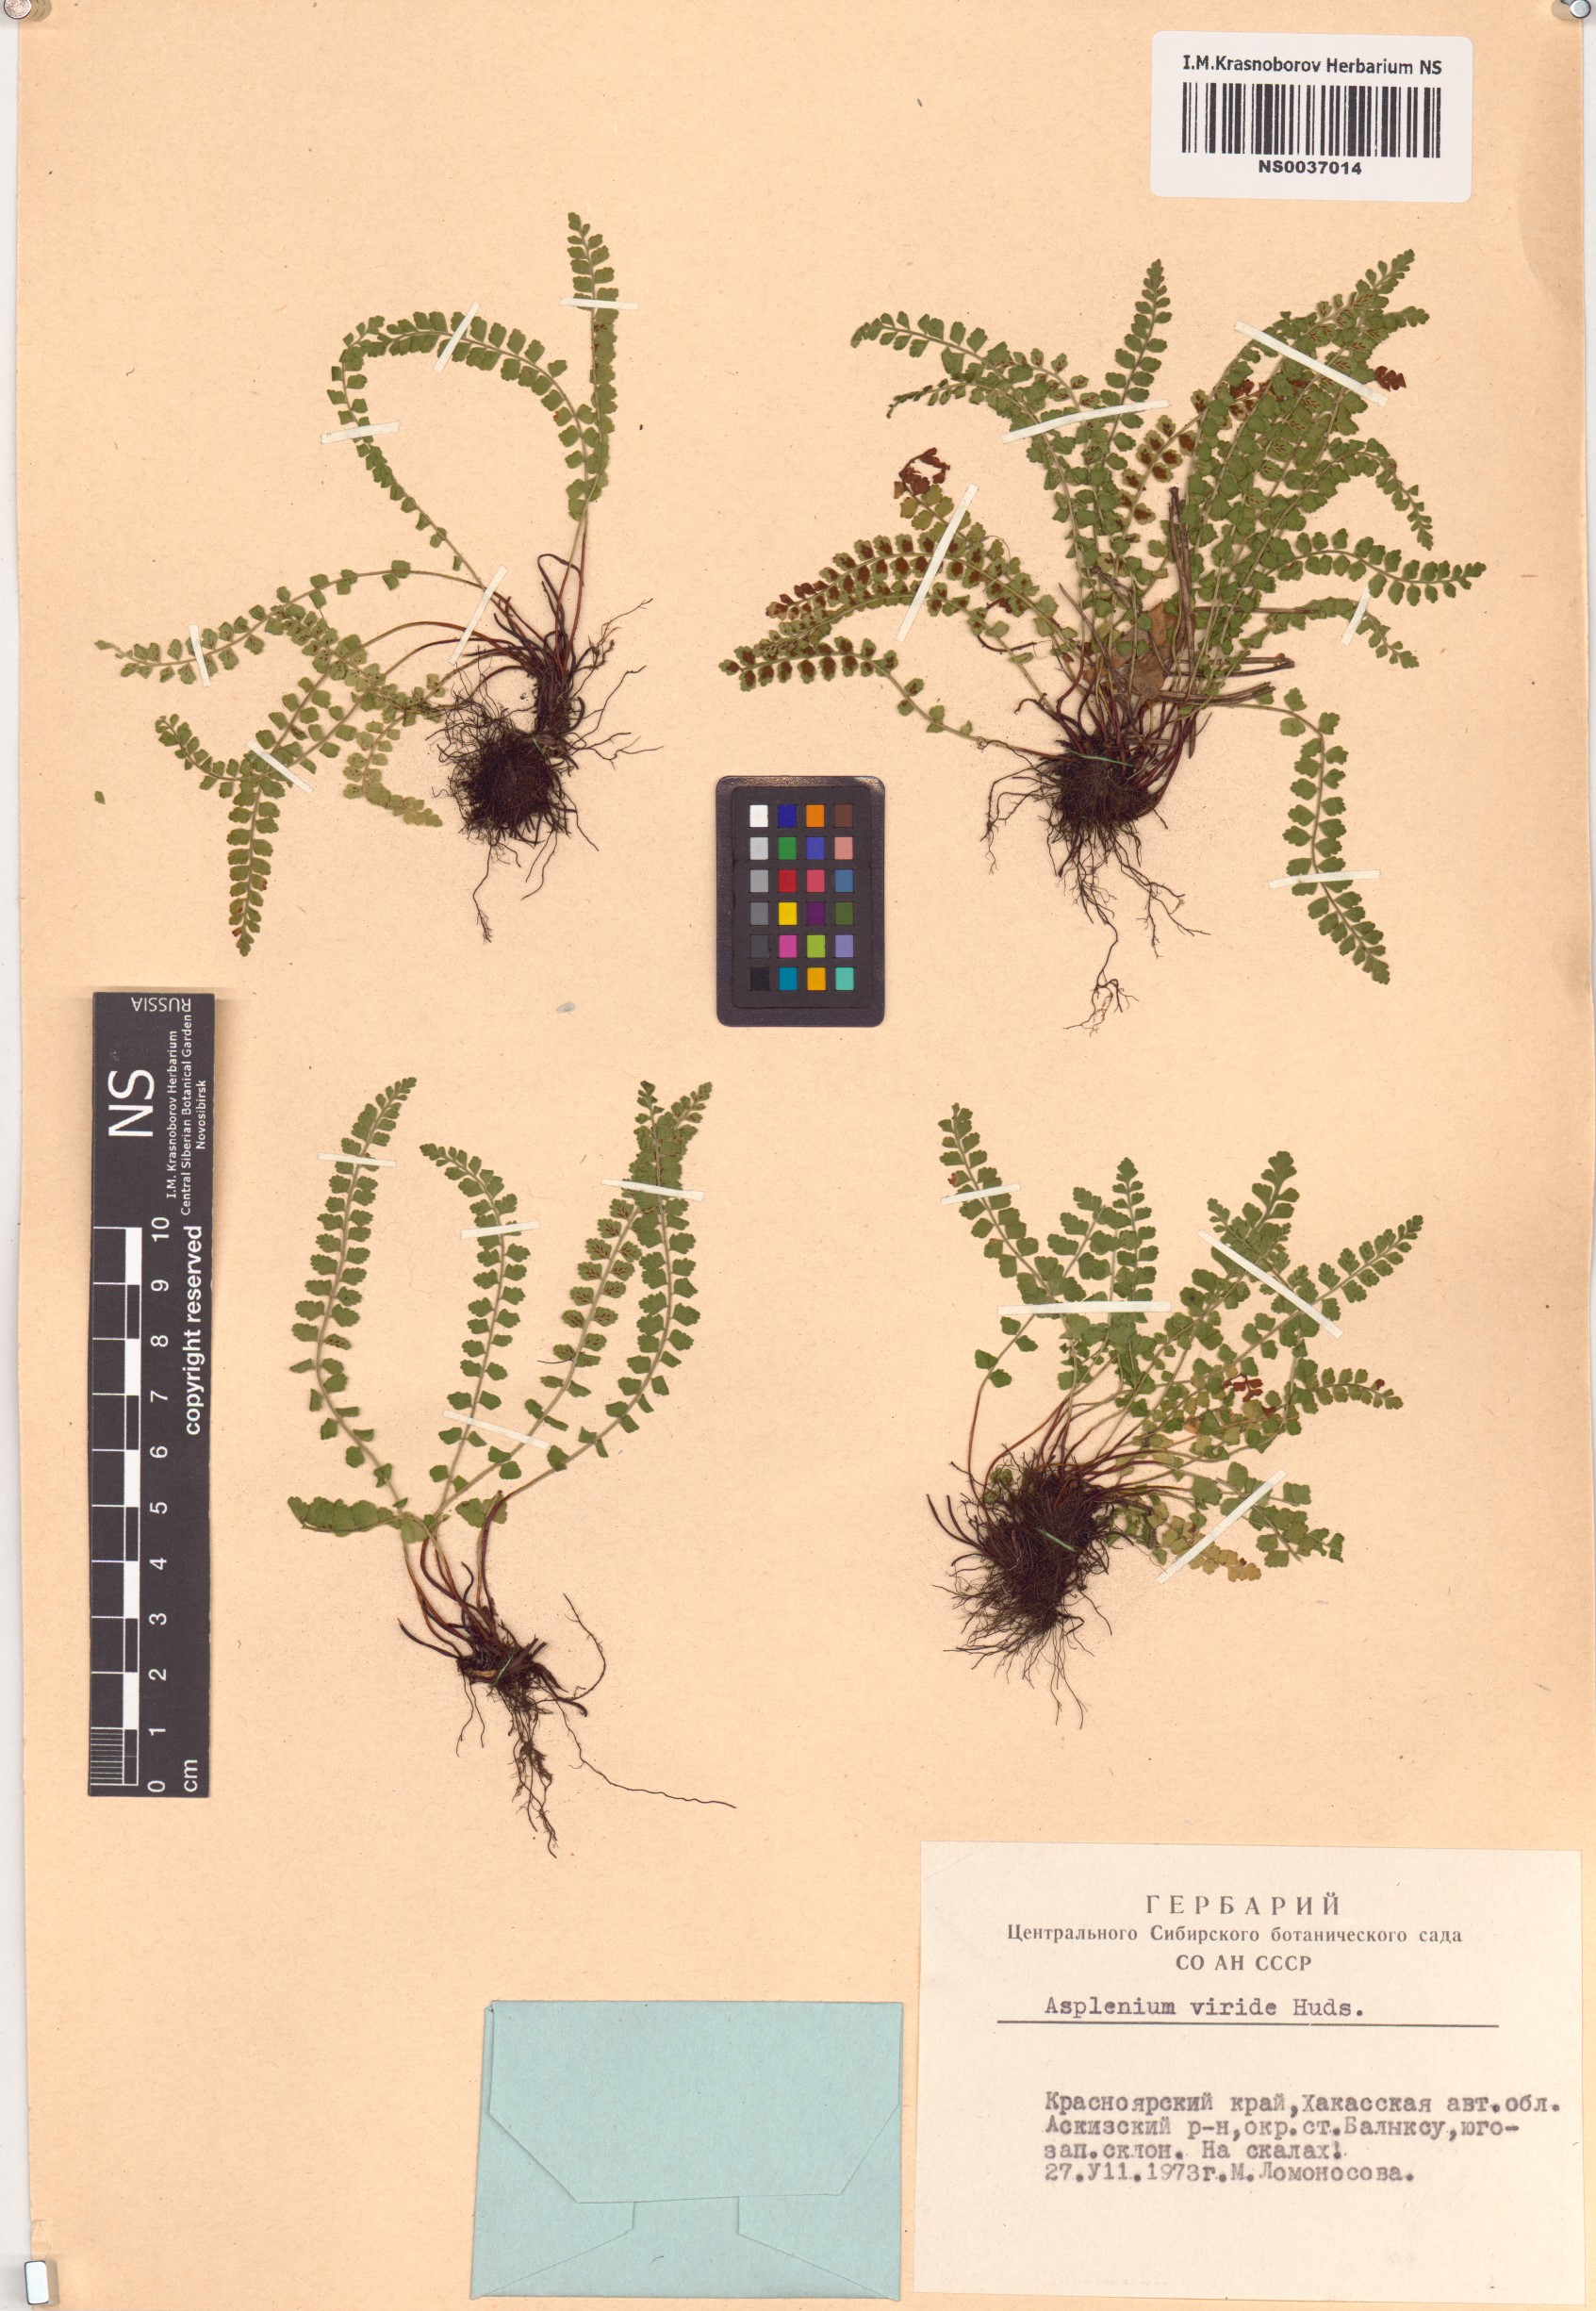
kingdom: Plantae
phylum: Tracheophyta
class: Polypodiopsida
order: Polypodiales
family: Aspleniaceae
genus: Asplenium
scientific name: Asplenium viride
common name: Green spleenwort
